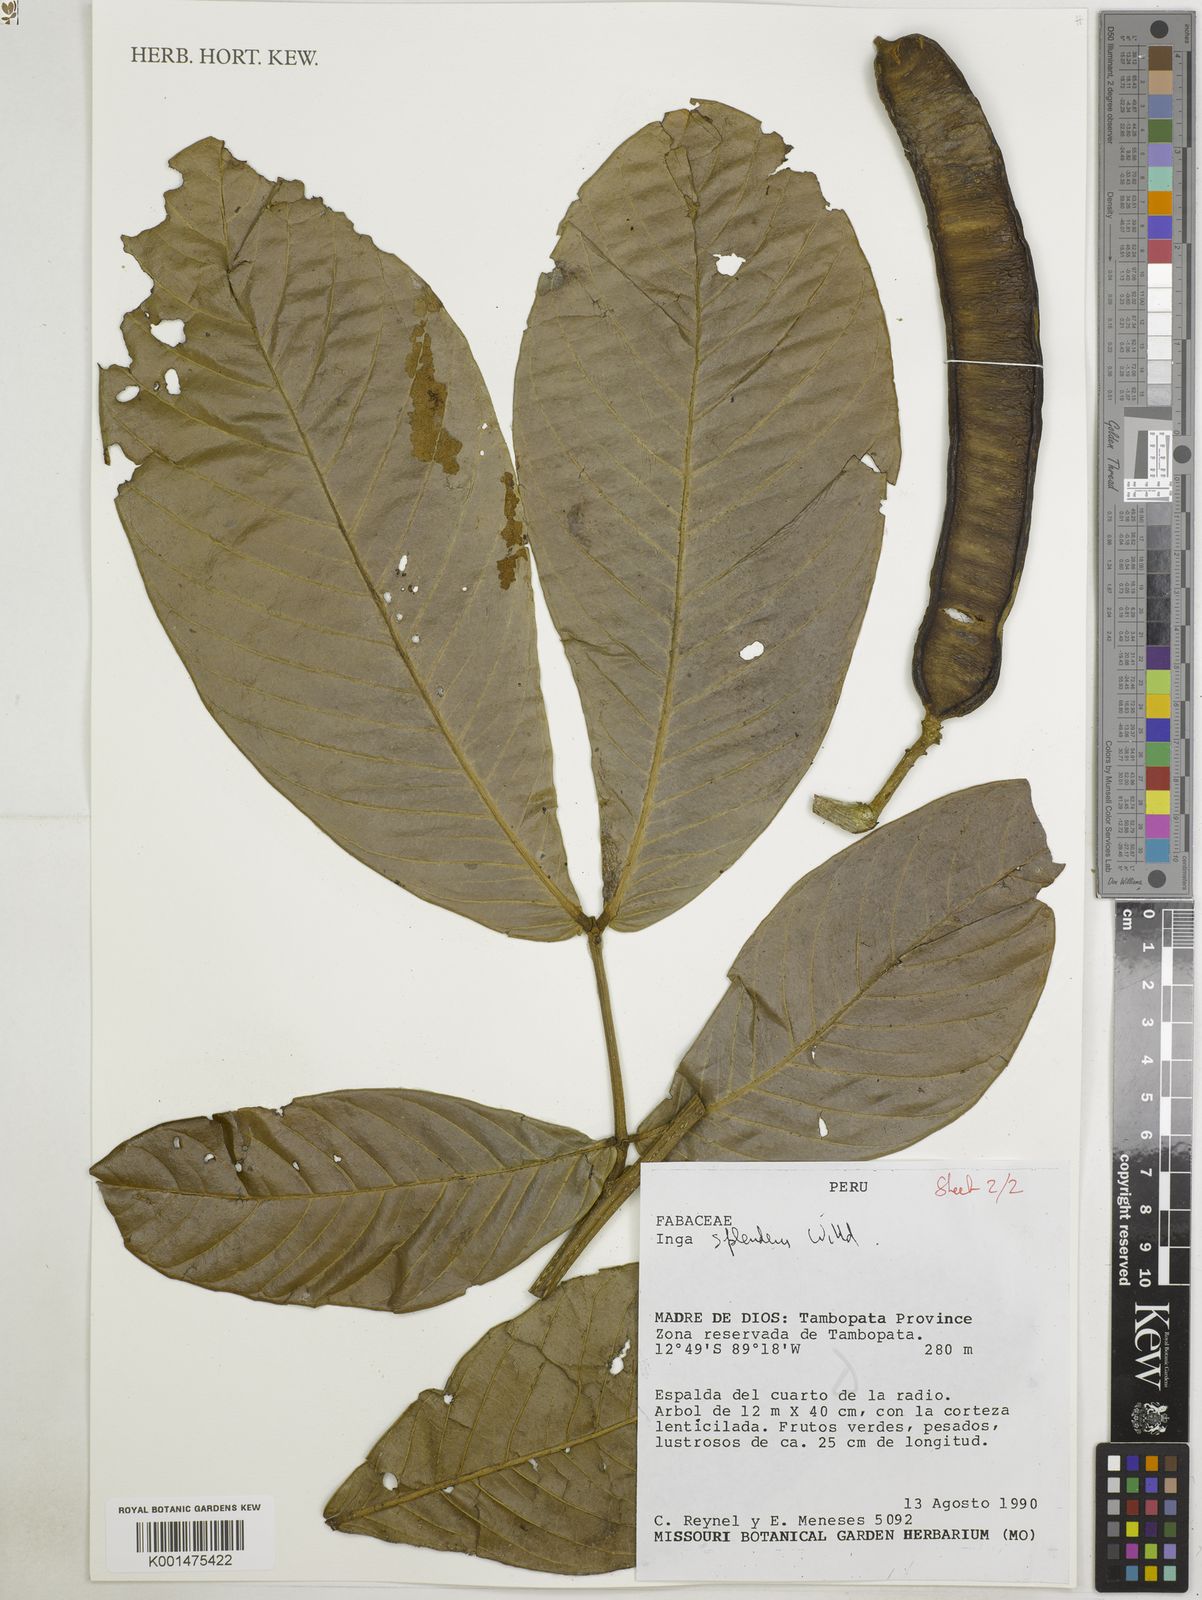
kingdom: Plantae
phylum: Tracheophyta
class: Magnoliopsida
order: Fabales
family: Fabaceae
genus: Inga
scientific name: Inga splendens
